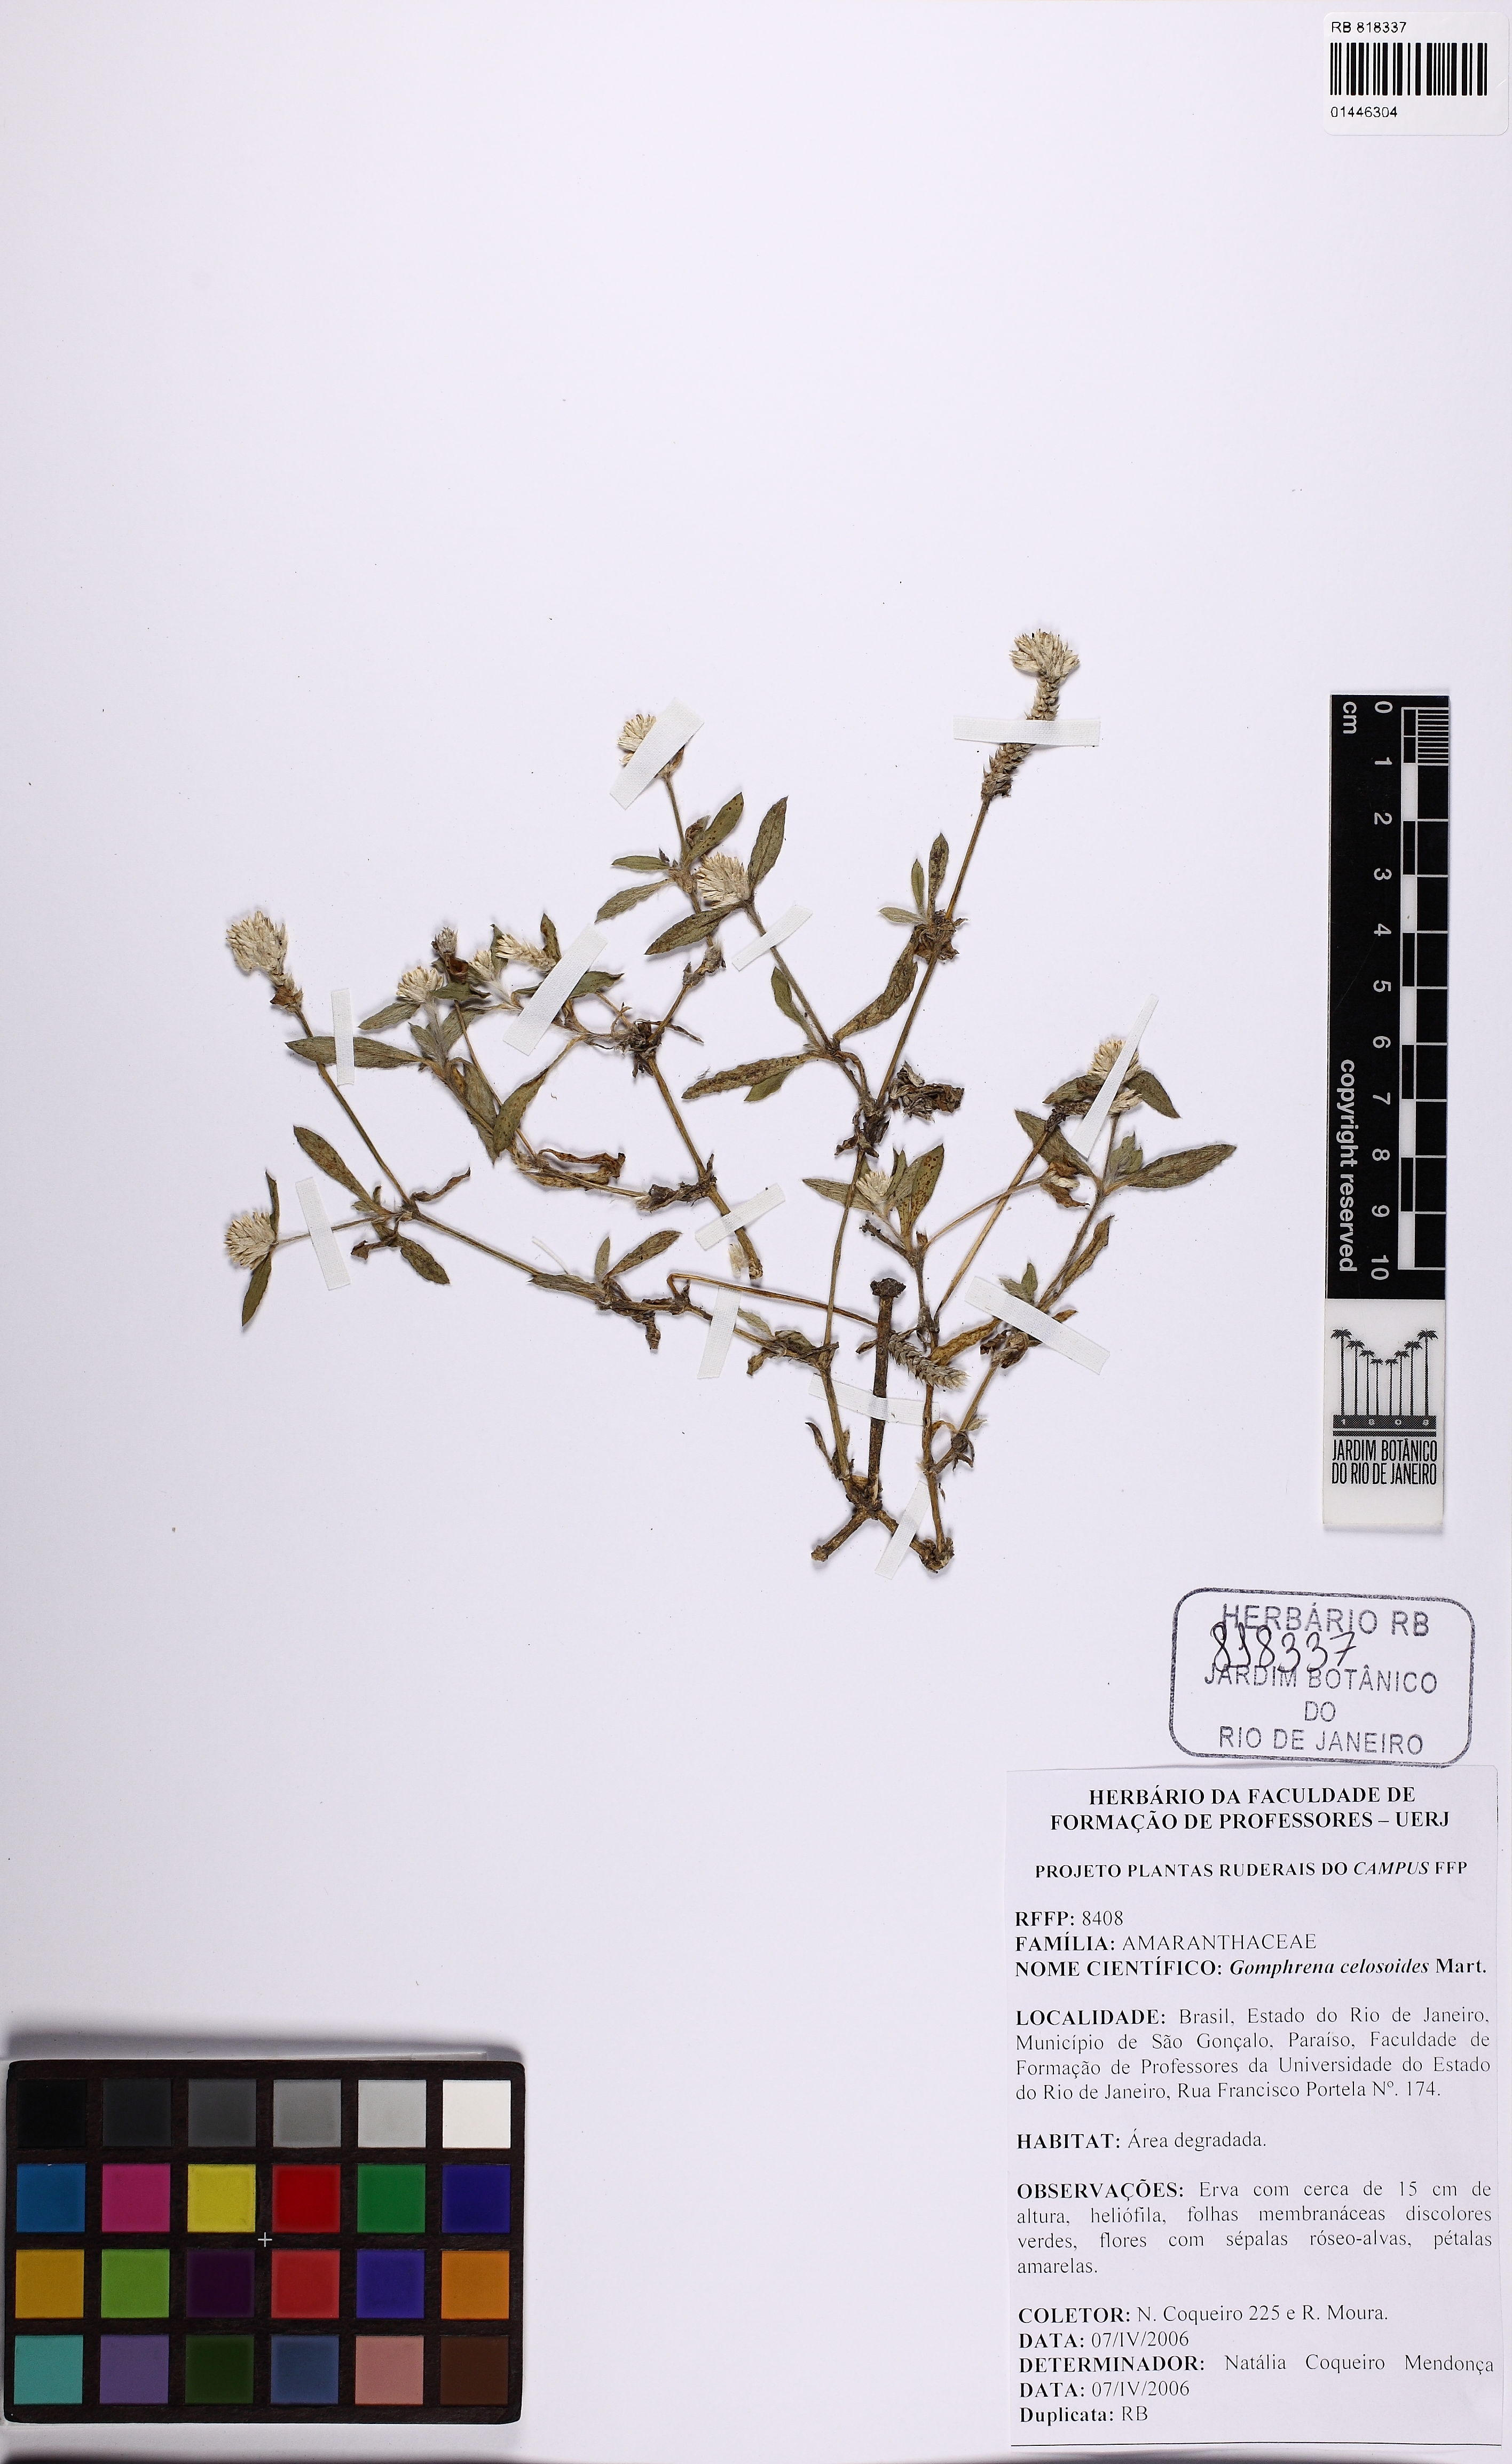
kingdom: Plantae
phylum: Tracheophyta
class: Magnoliopsida
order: Caryophyllales
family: Amaranthaceae
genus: Gomphrena
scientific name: Gomphrena celosioides
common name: Gomphrena-weed
